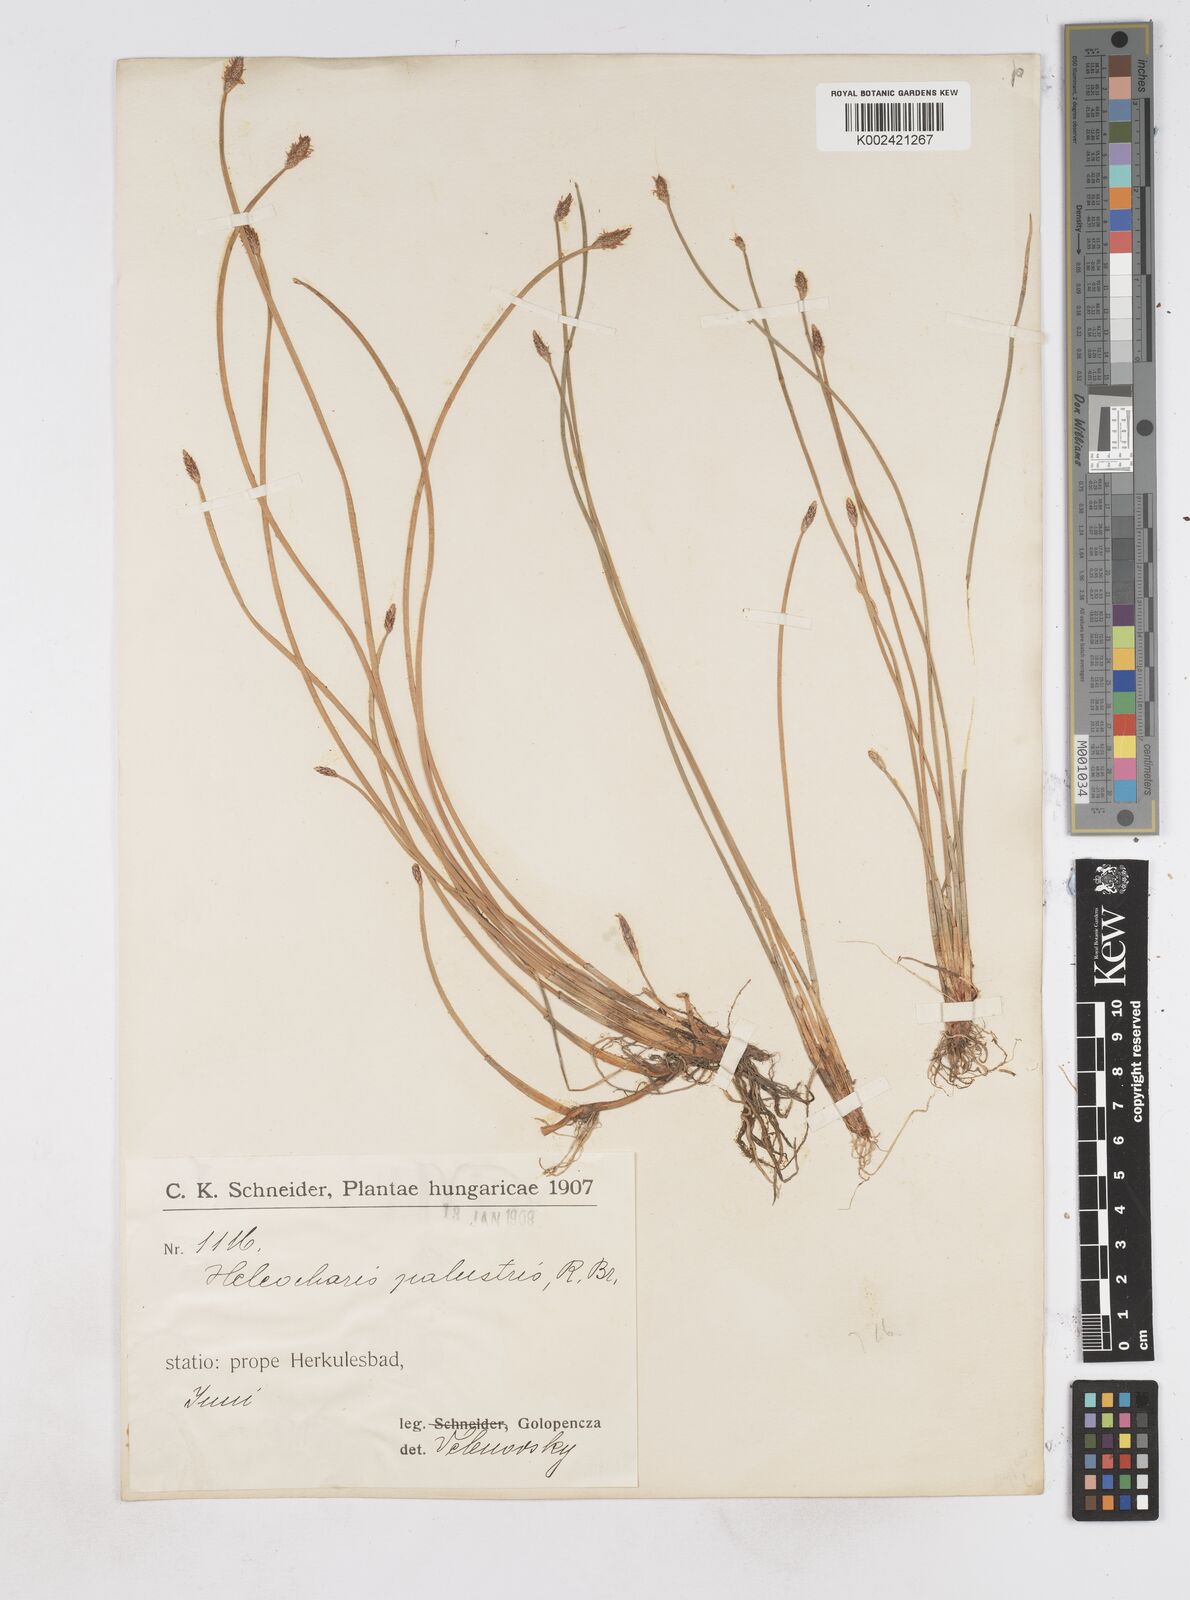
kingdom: Plantae
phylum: Tracheophyta
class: Liliopsida
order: Poales
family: Cyperaceae
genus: Eleocharis
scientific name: Eleocharis palustris
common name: Common spike-rush
